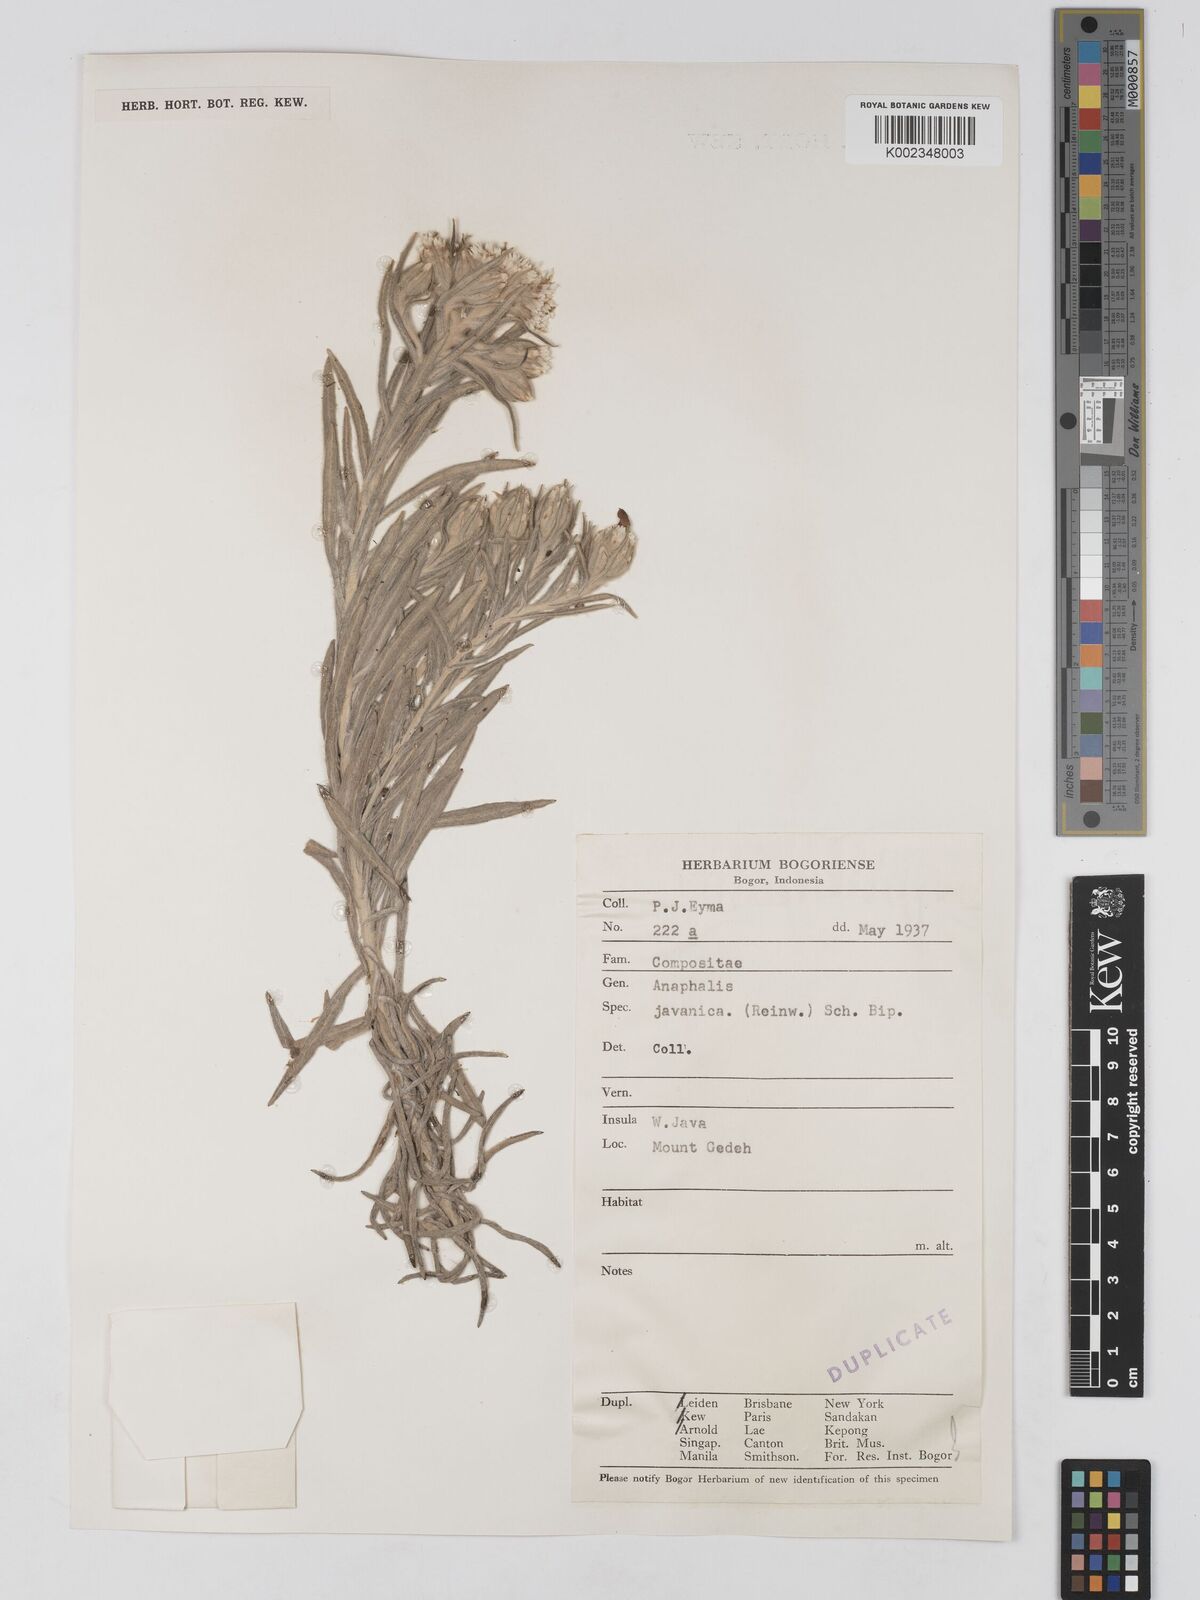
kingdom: Plantae
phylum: Tracheophyta
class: Magnoliopsida
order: Asterales
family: Asteraceae
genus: Anaphalis
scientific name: Anaphalis javanica
